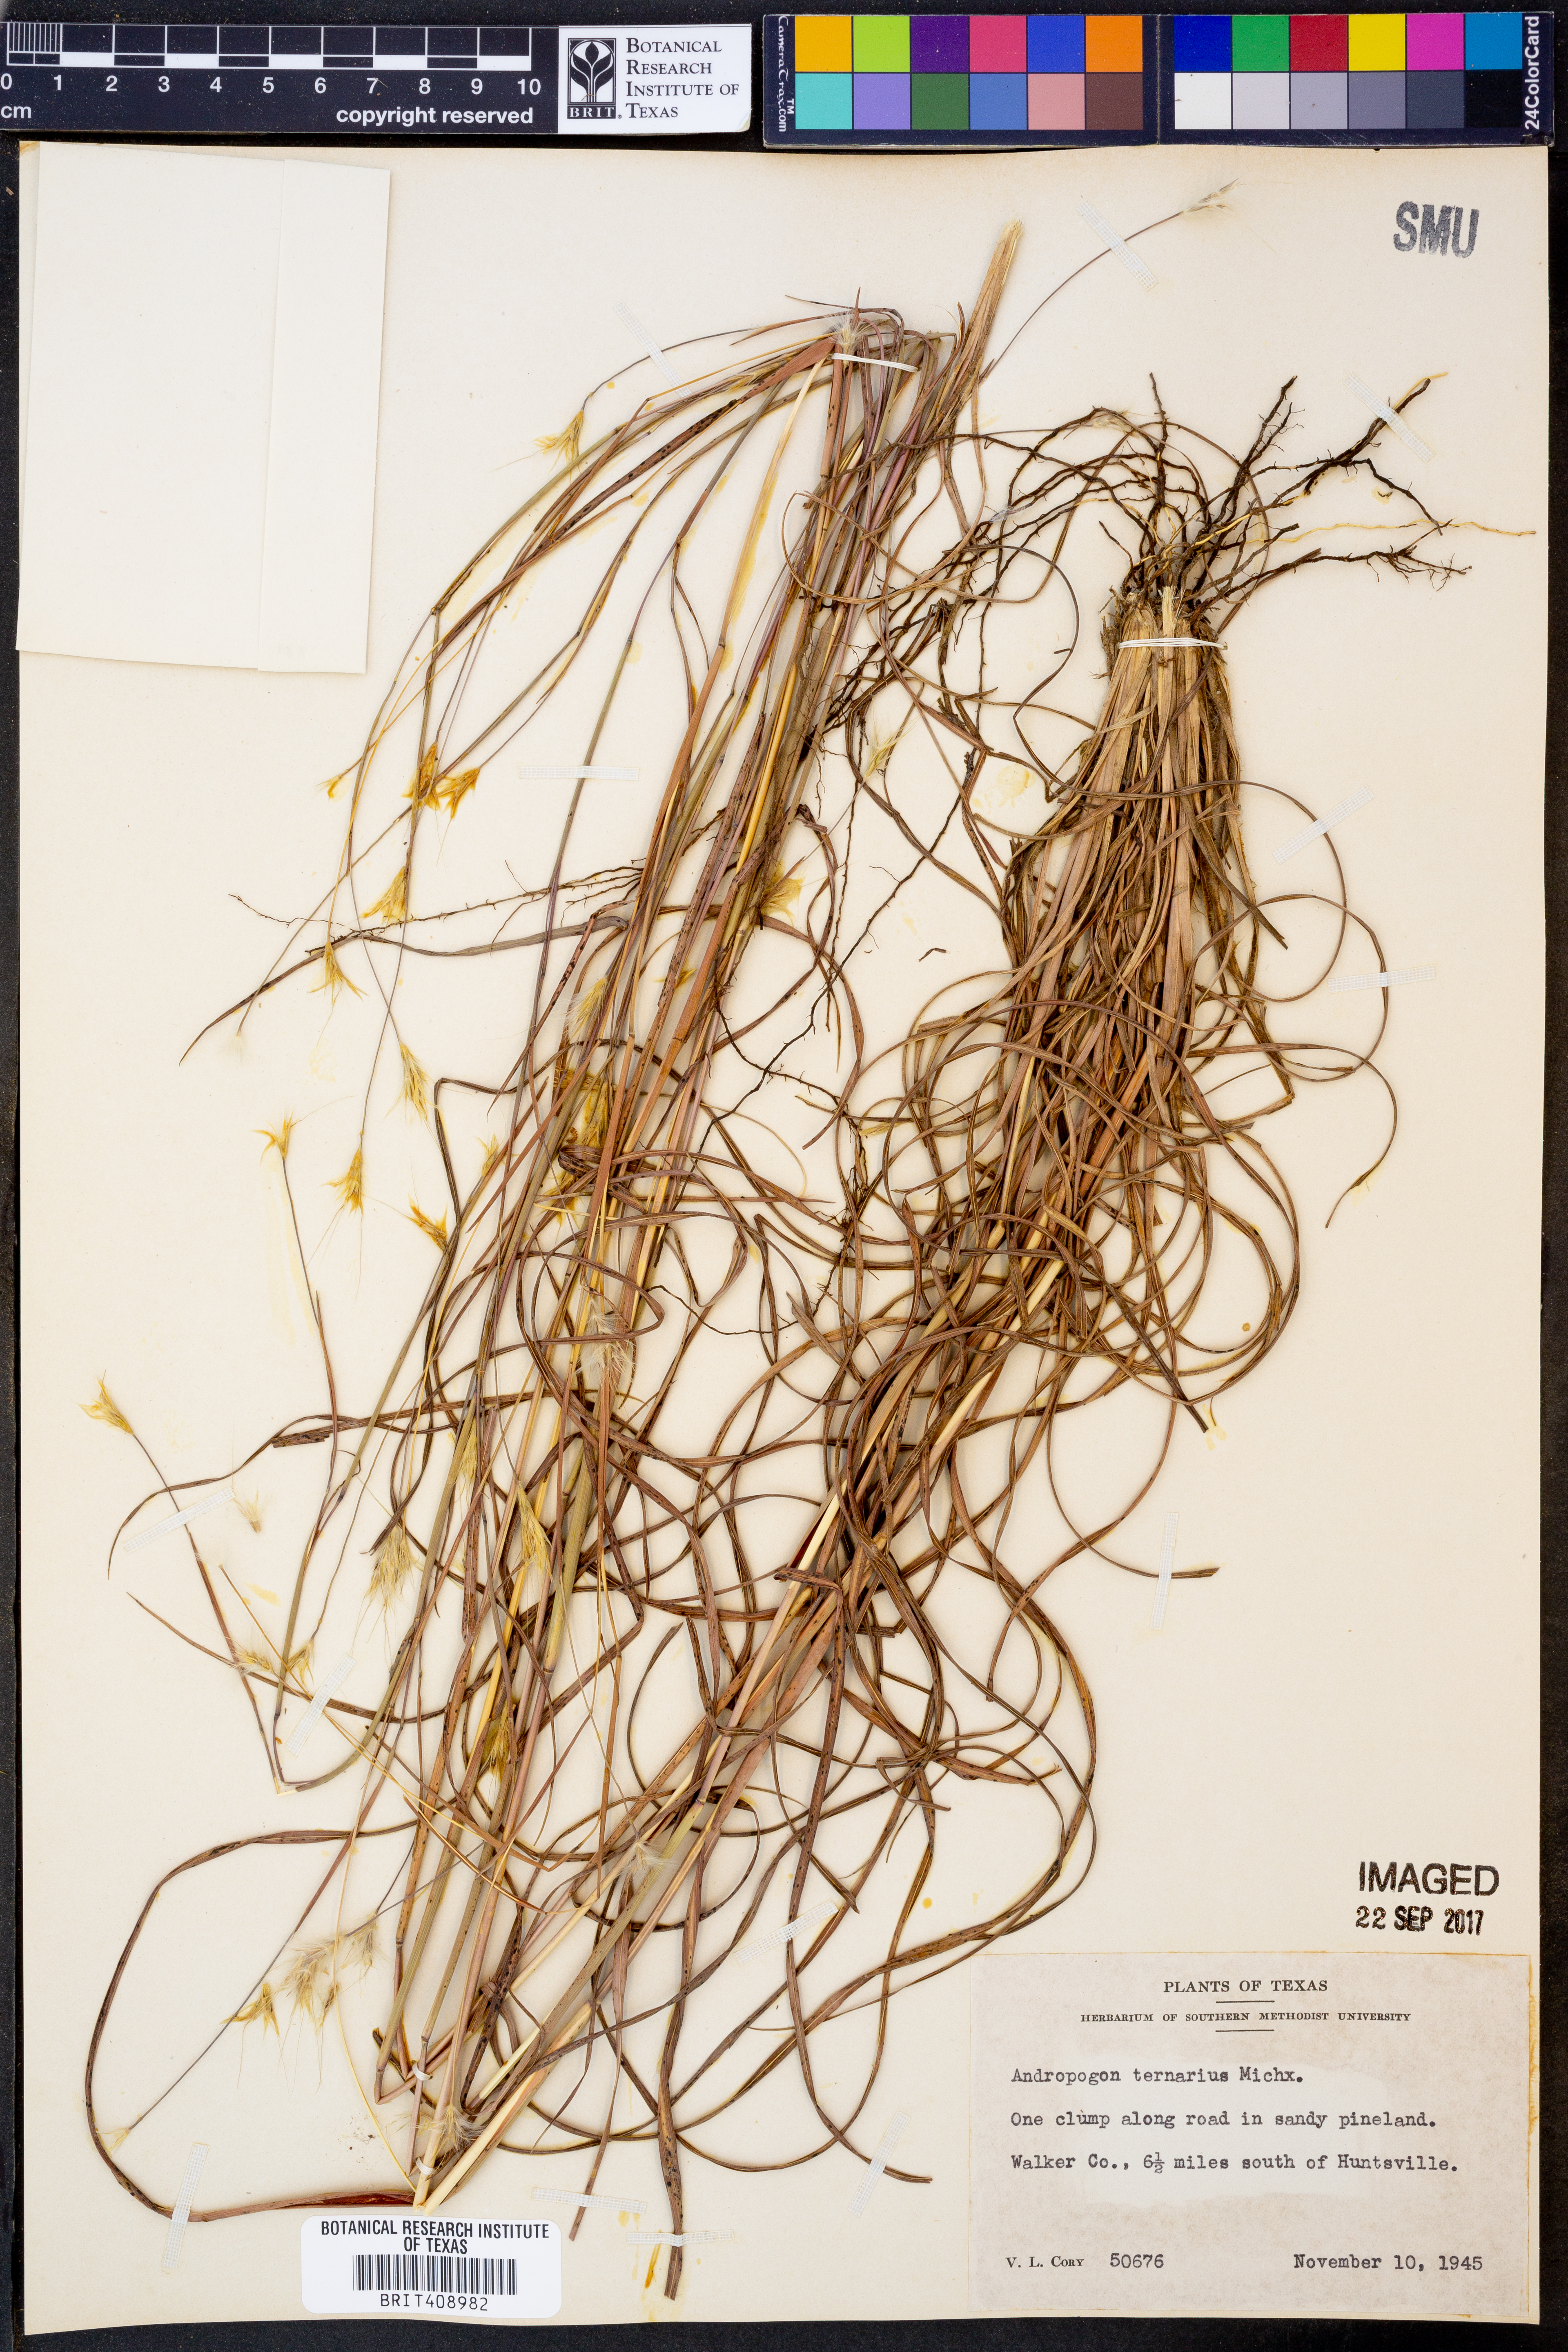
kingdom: Plantae
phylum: Tracheophyta
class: Liliopsida
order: Poales
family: Poaceae
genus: Andropogon
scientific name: Andropogon ternarius
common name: Split bluestem
